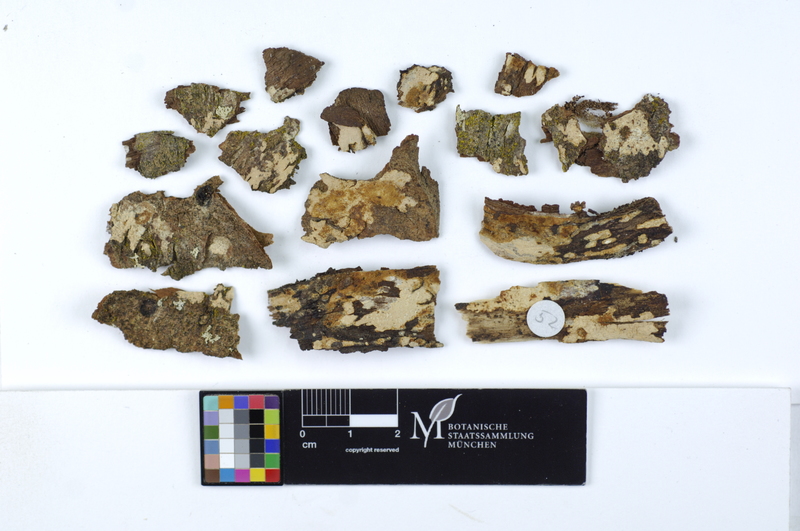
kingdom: Plantae
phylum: Tracheophyta
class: Magnoliopsida
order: Fagales
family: Betulaceae
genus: Betula
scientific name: Betula pubescens
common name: Downy birch
